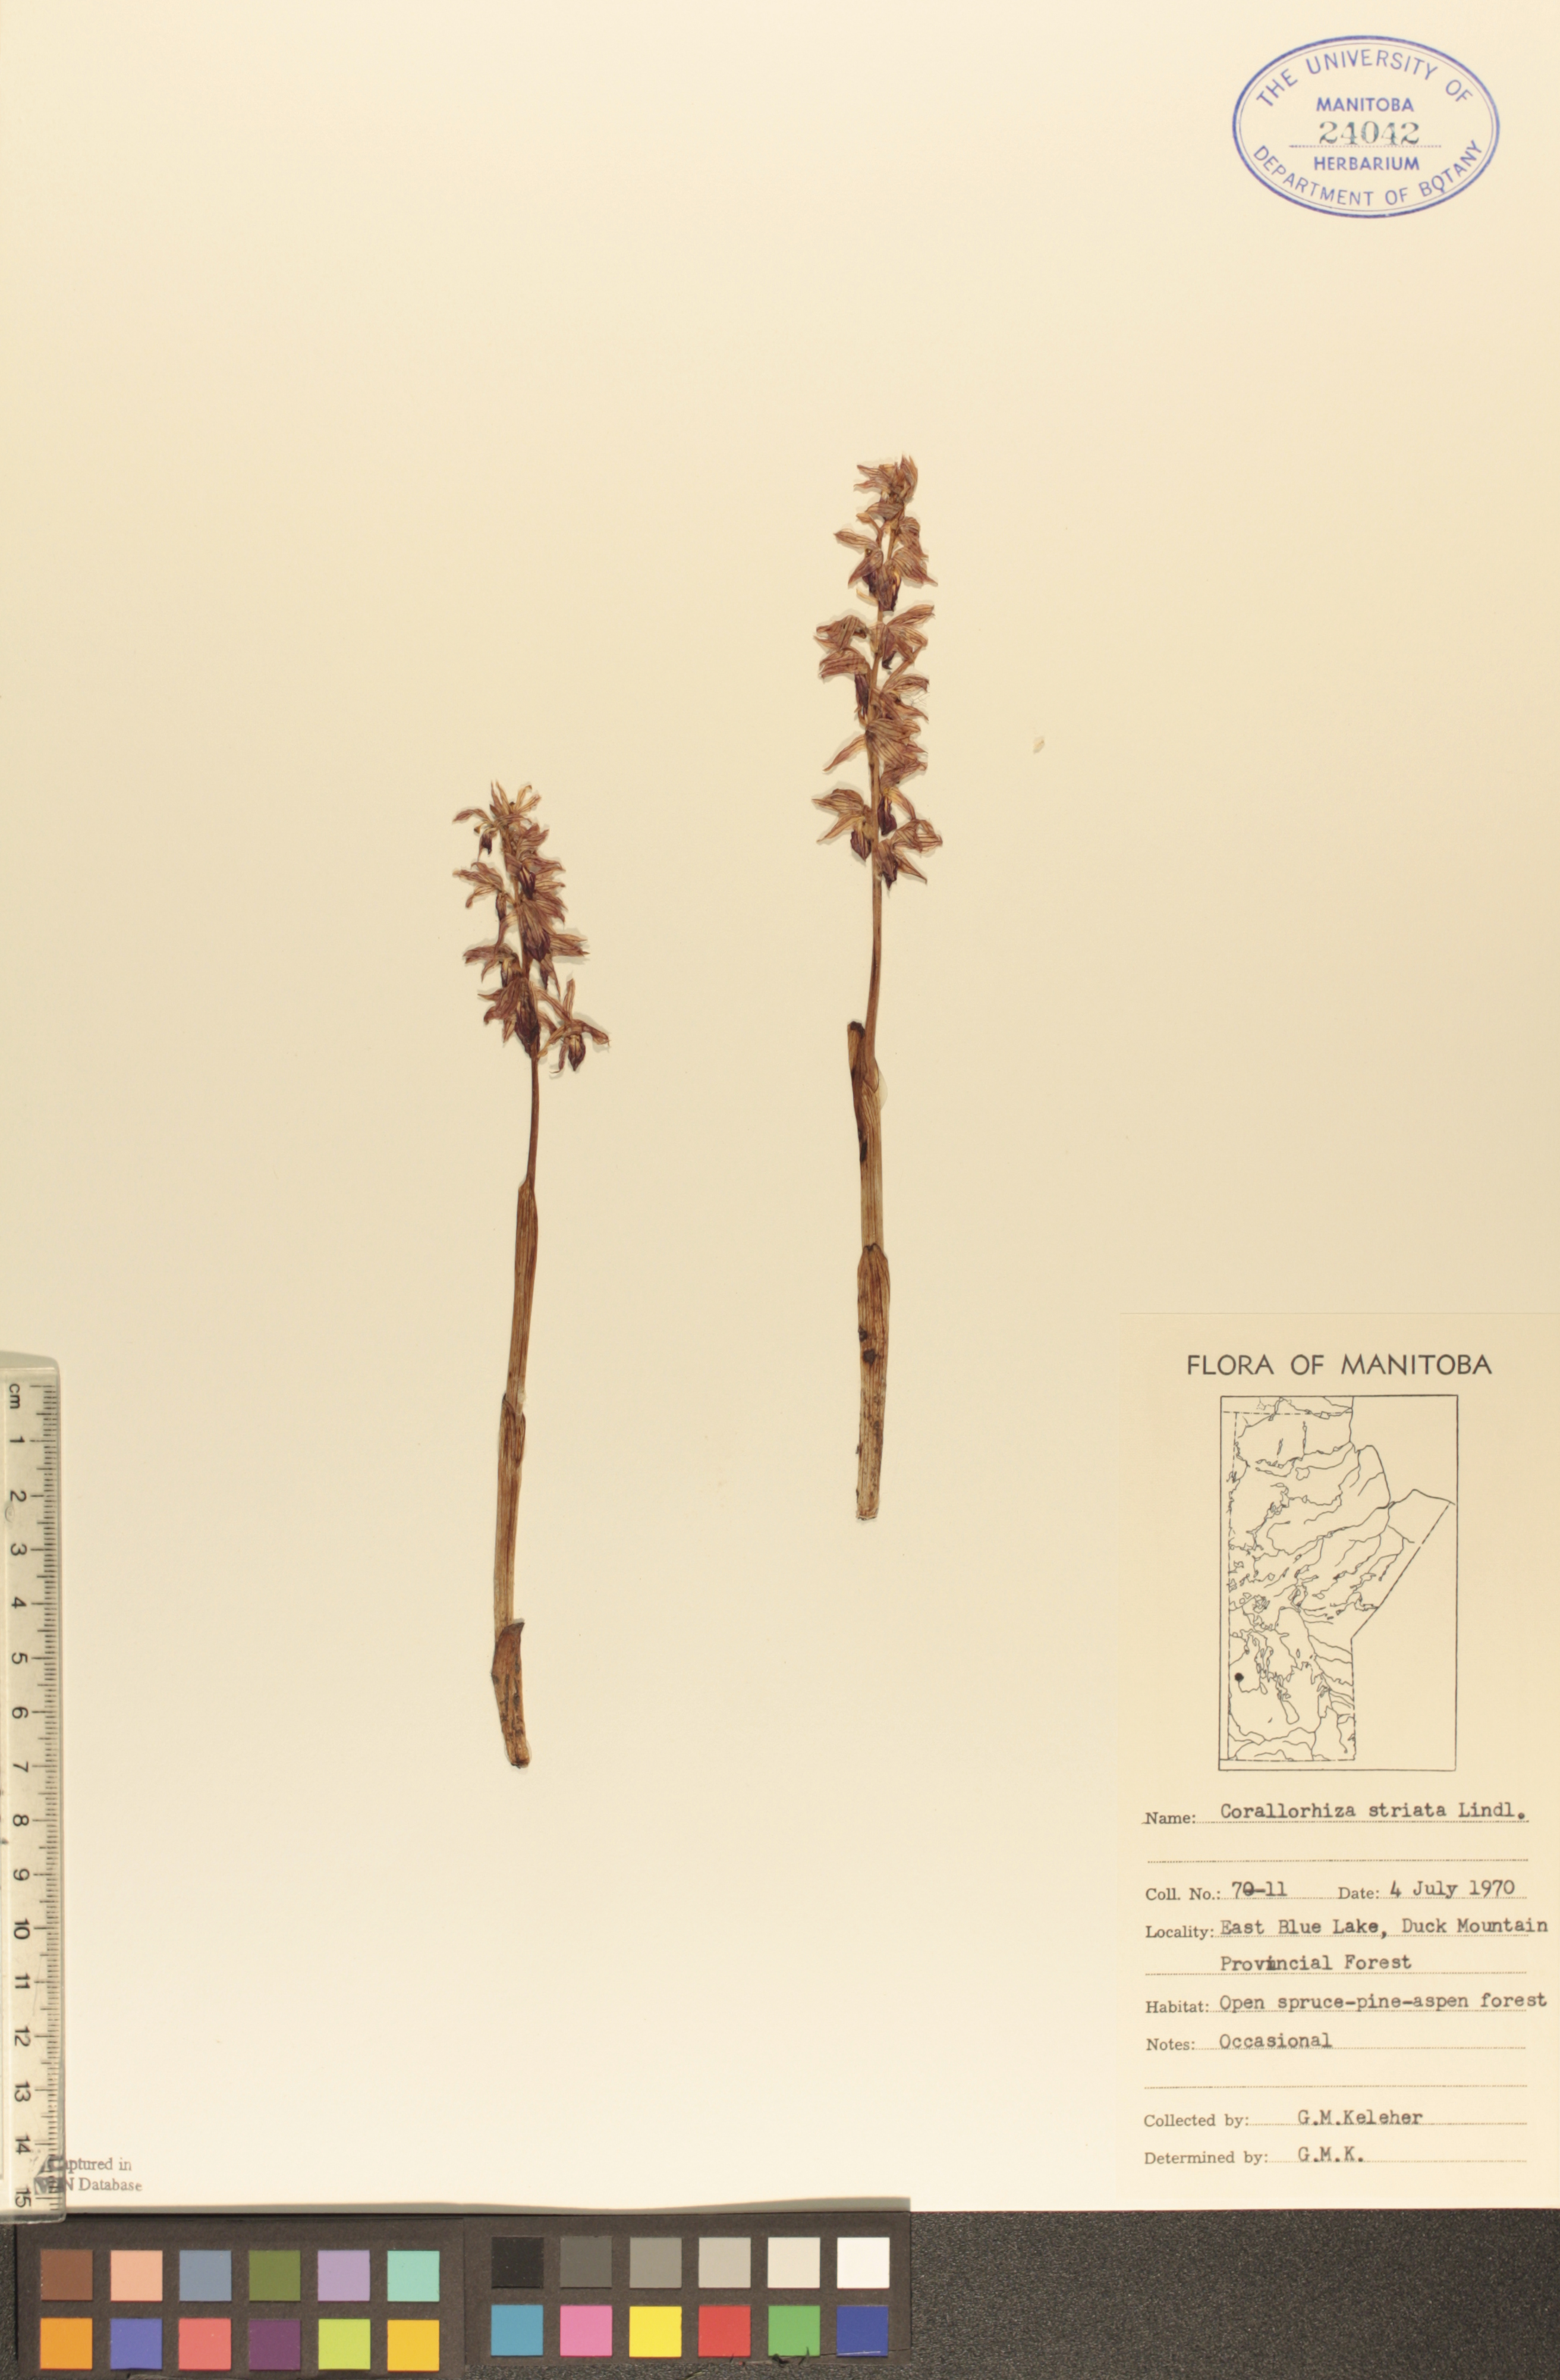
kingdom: Plantae
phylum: Tracheophyta
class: Liliopsida
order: Asparagales
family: Orchidaceae
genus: Corallorhiza
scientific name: Corallorhiza striata
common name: Hooded coralroot
